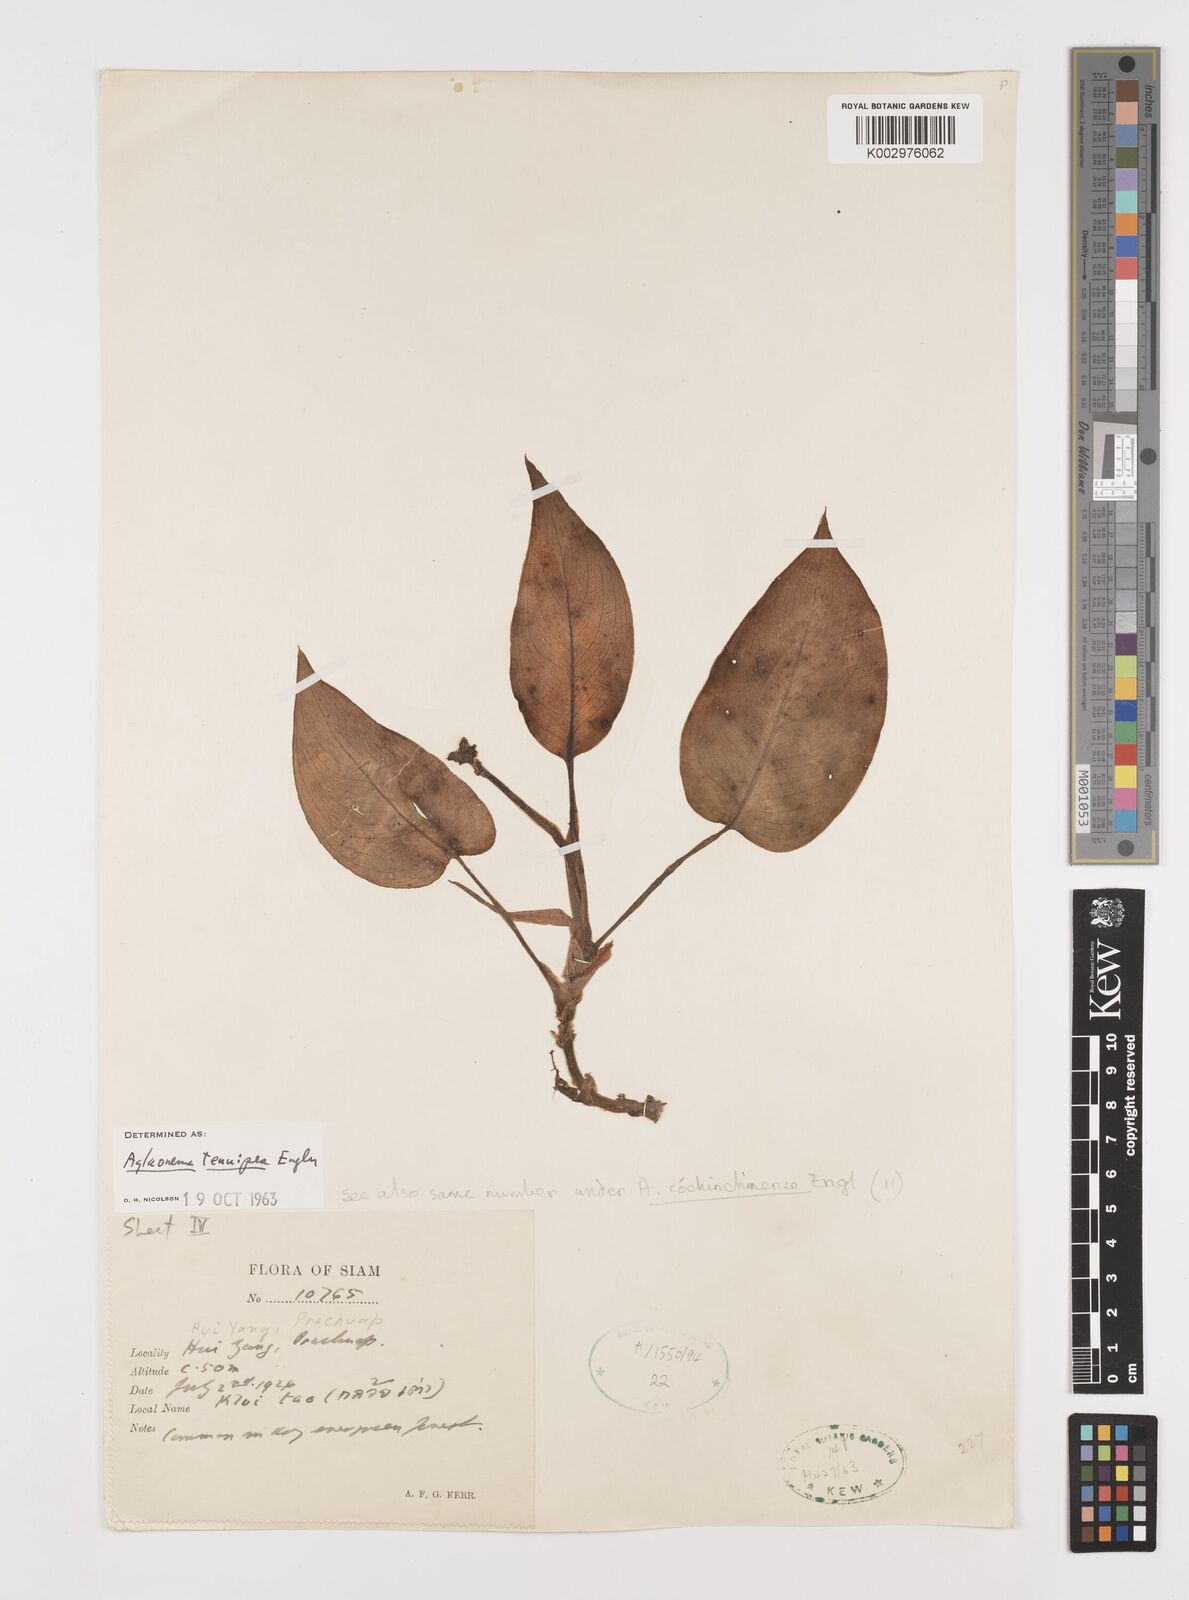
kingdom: Plantae
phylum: Tracheophyta
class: Liliopsida
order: Alismatales
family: Araceae
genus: Aglaonema
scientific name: Aglaonema simplex
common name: Malayan-sword
